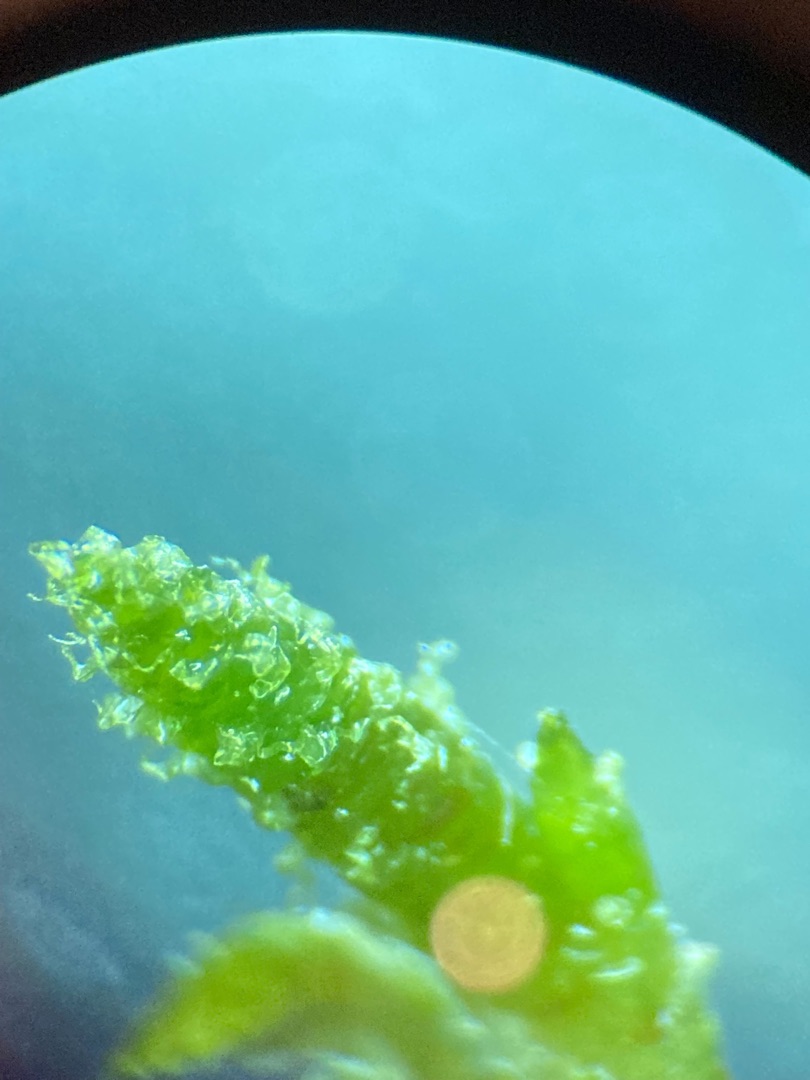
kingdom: Plantae
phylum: Bryophyta
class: Bryopsida
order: Hypnales
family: Hylocomiaceae
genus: Hylocomium
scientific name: Hylocomium splendens
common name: Almindelig etagemos
